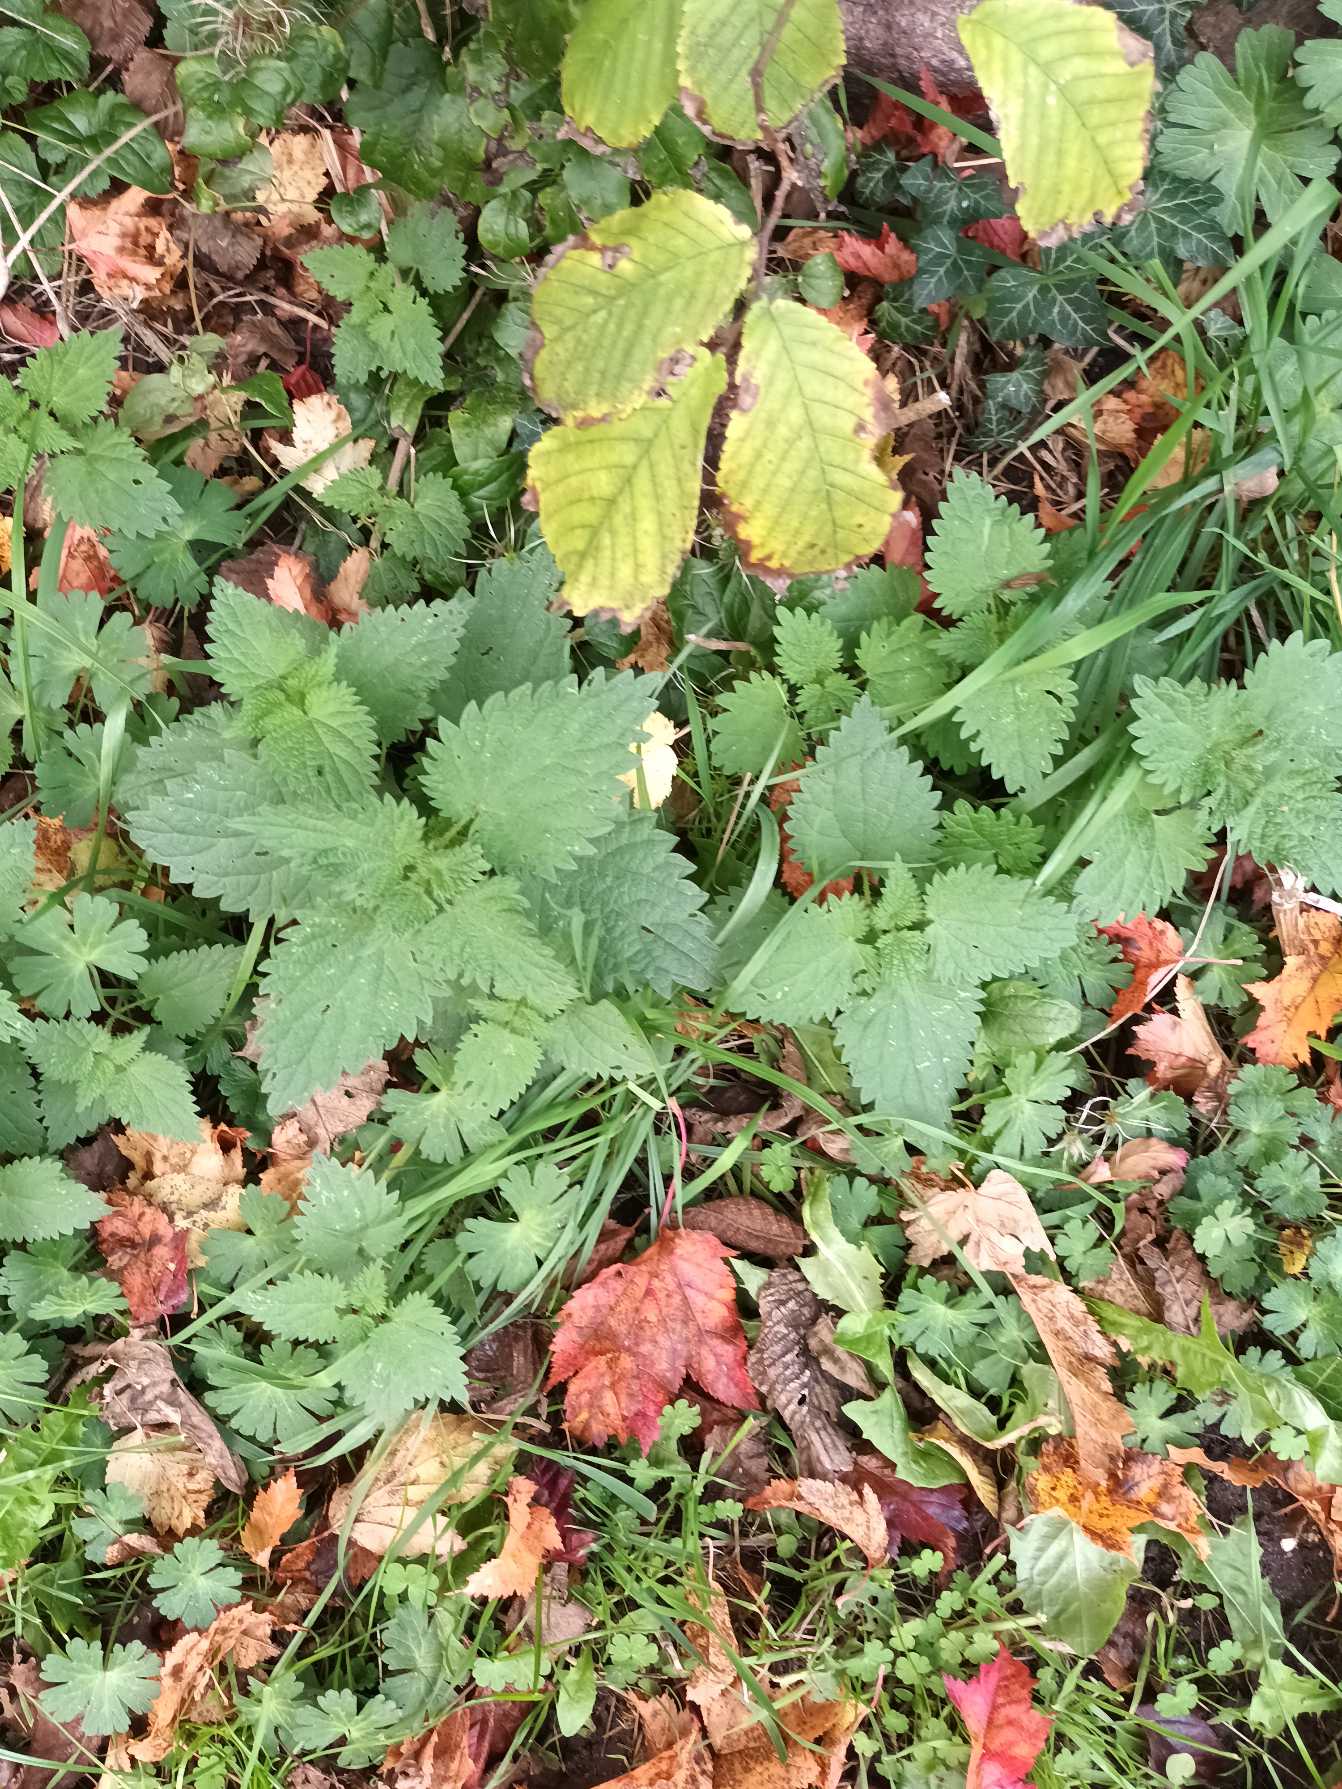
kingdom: Plantae
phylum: Tracheophyta
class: Magnoliopsida
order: Rosales
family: Urticaceae
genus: Urtica
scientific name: Urtica dioica
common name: Stor nælde
